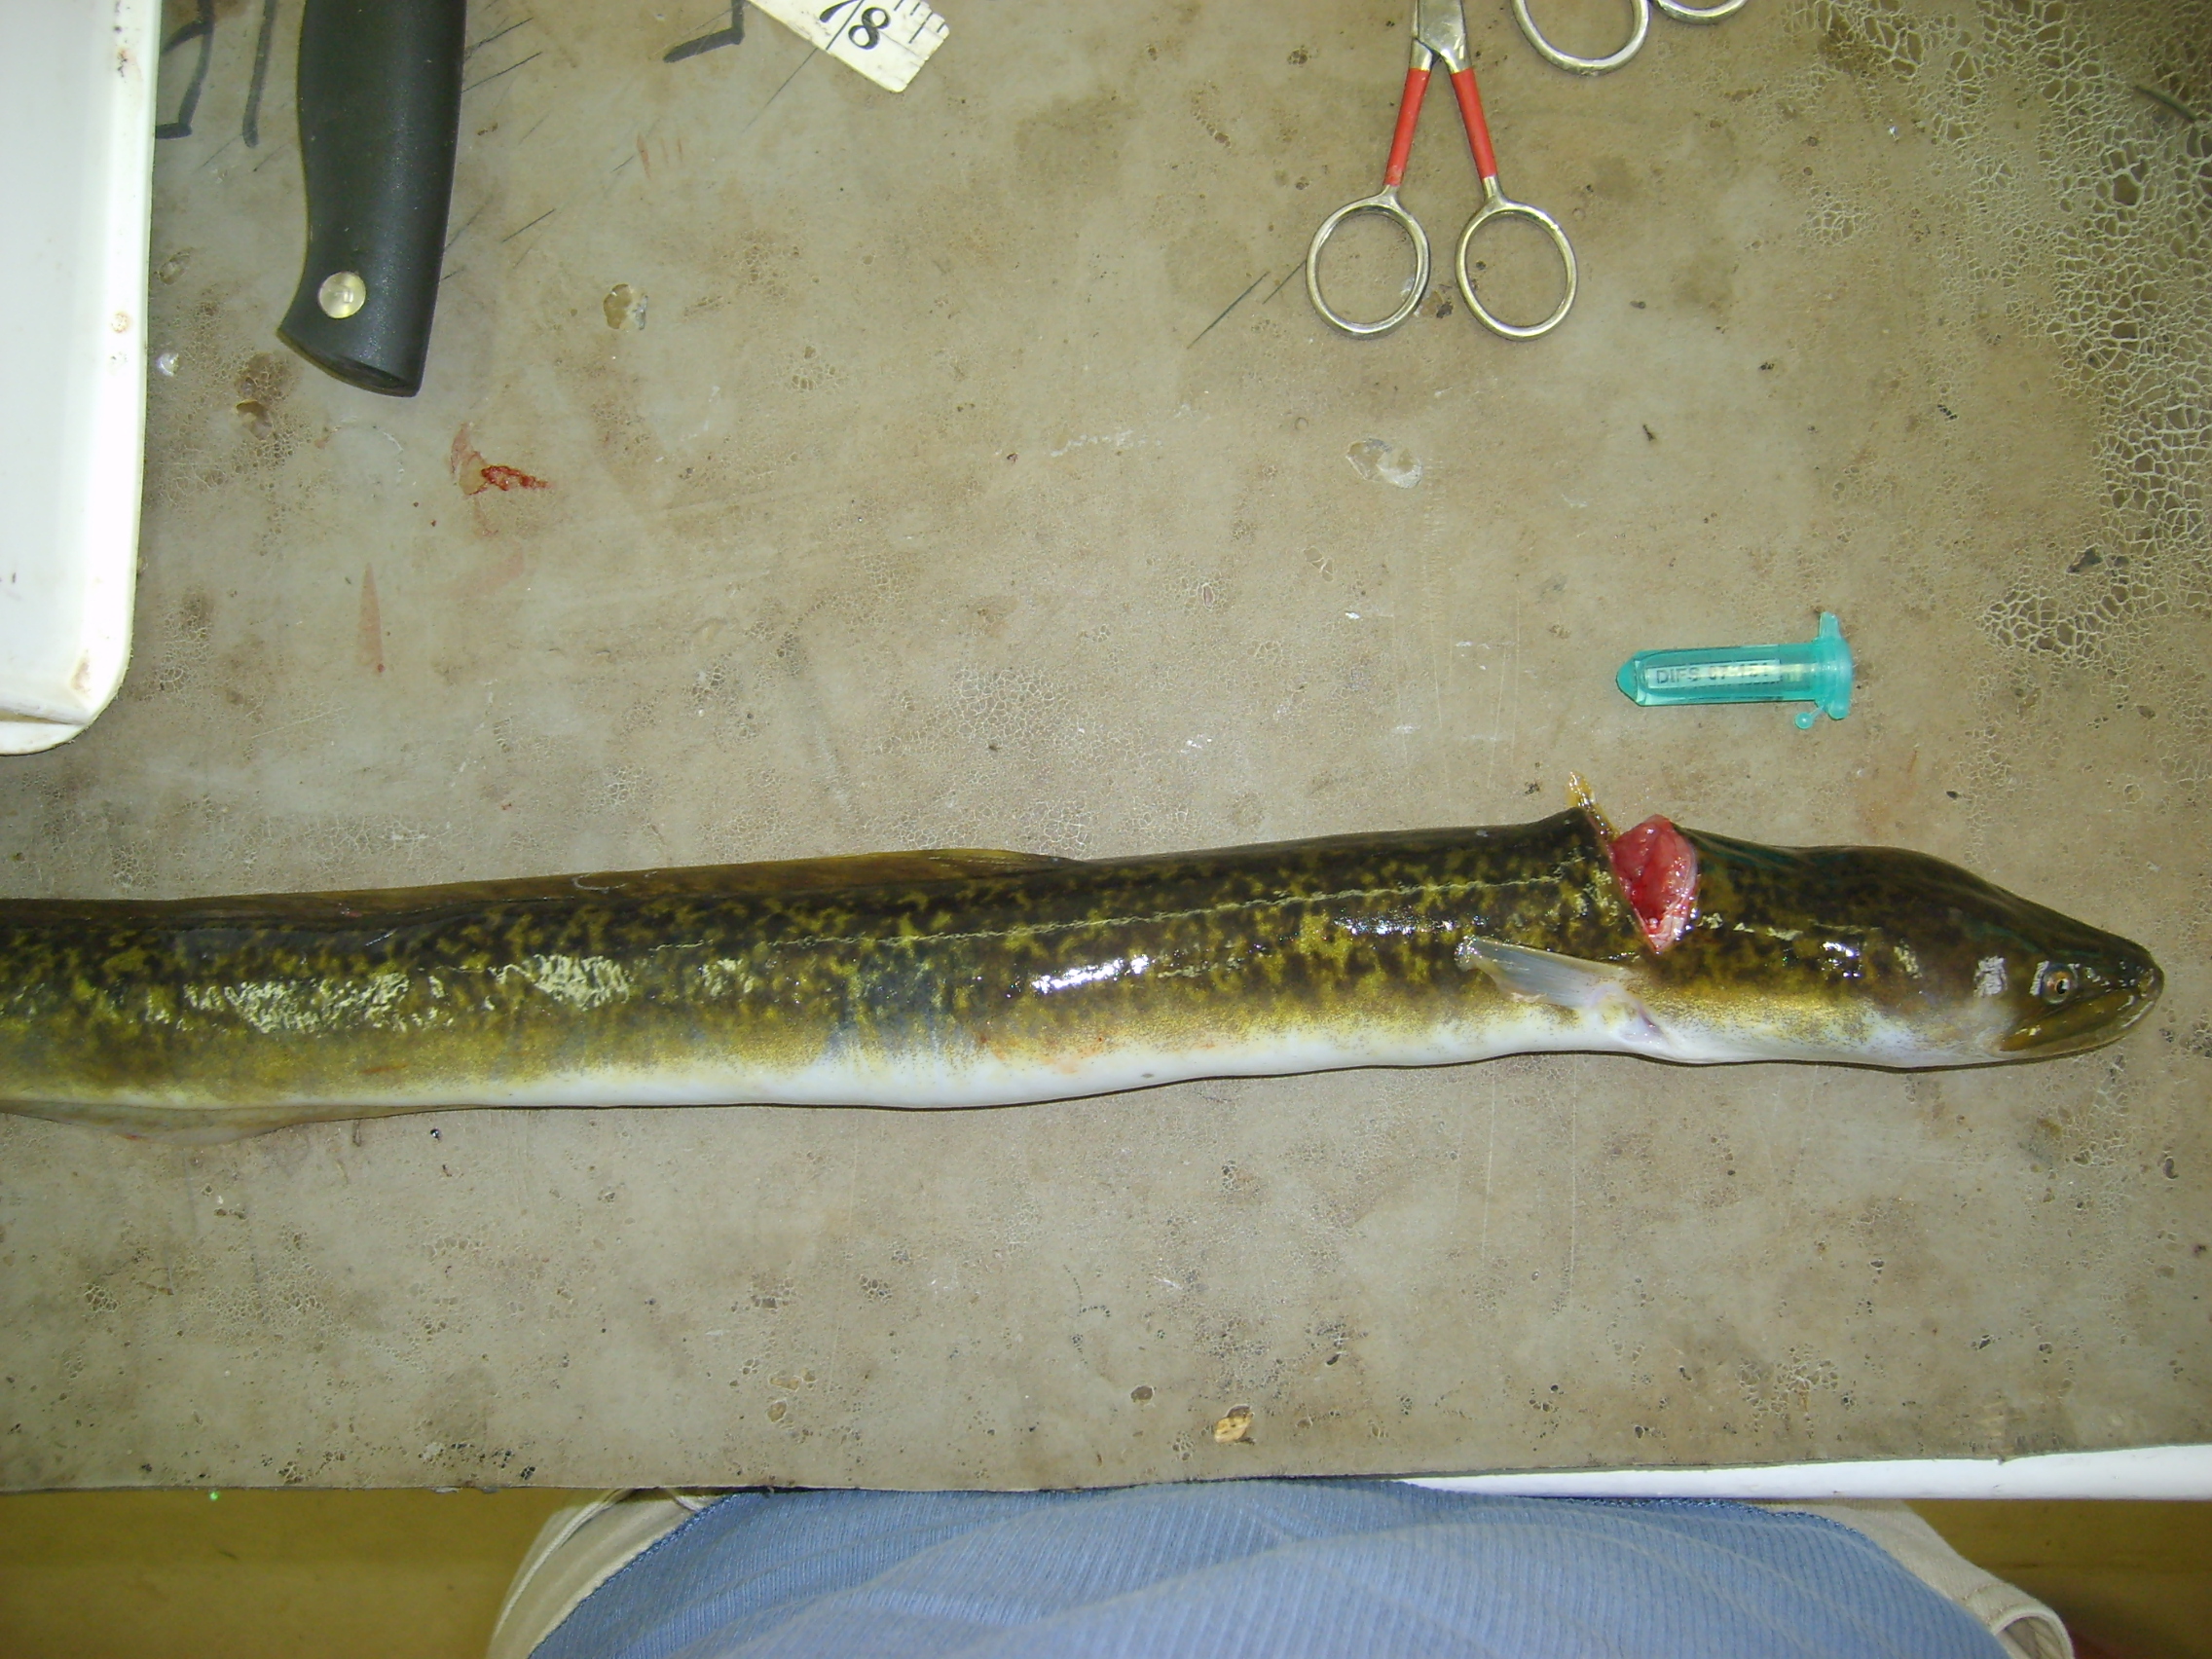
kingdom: Animalia
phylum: Chordata
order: Anguilliformes
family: Anguillidae
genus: Anguilla
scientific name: Anguilla mossambica
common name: African longfin eel
